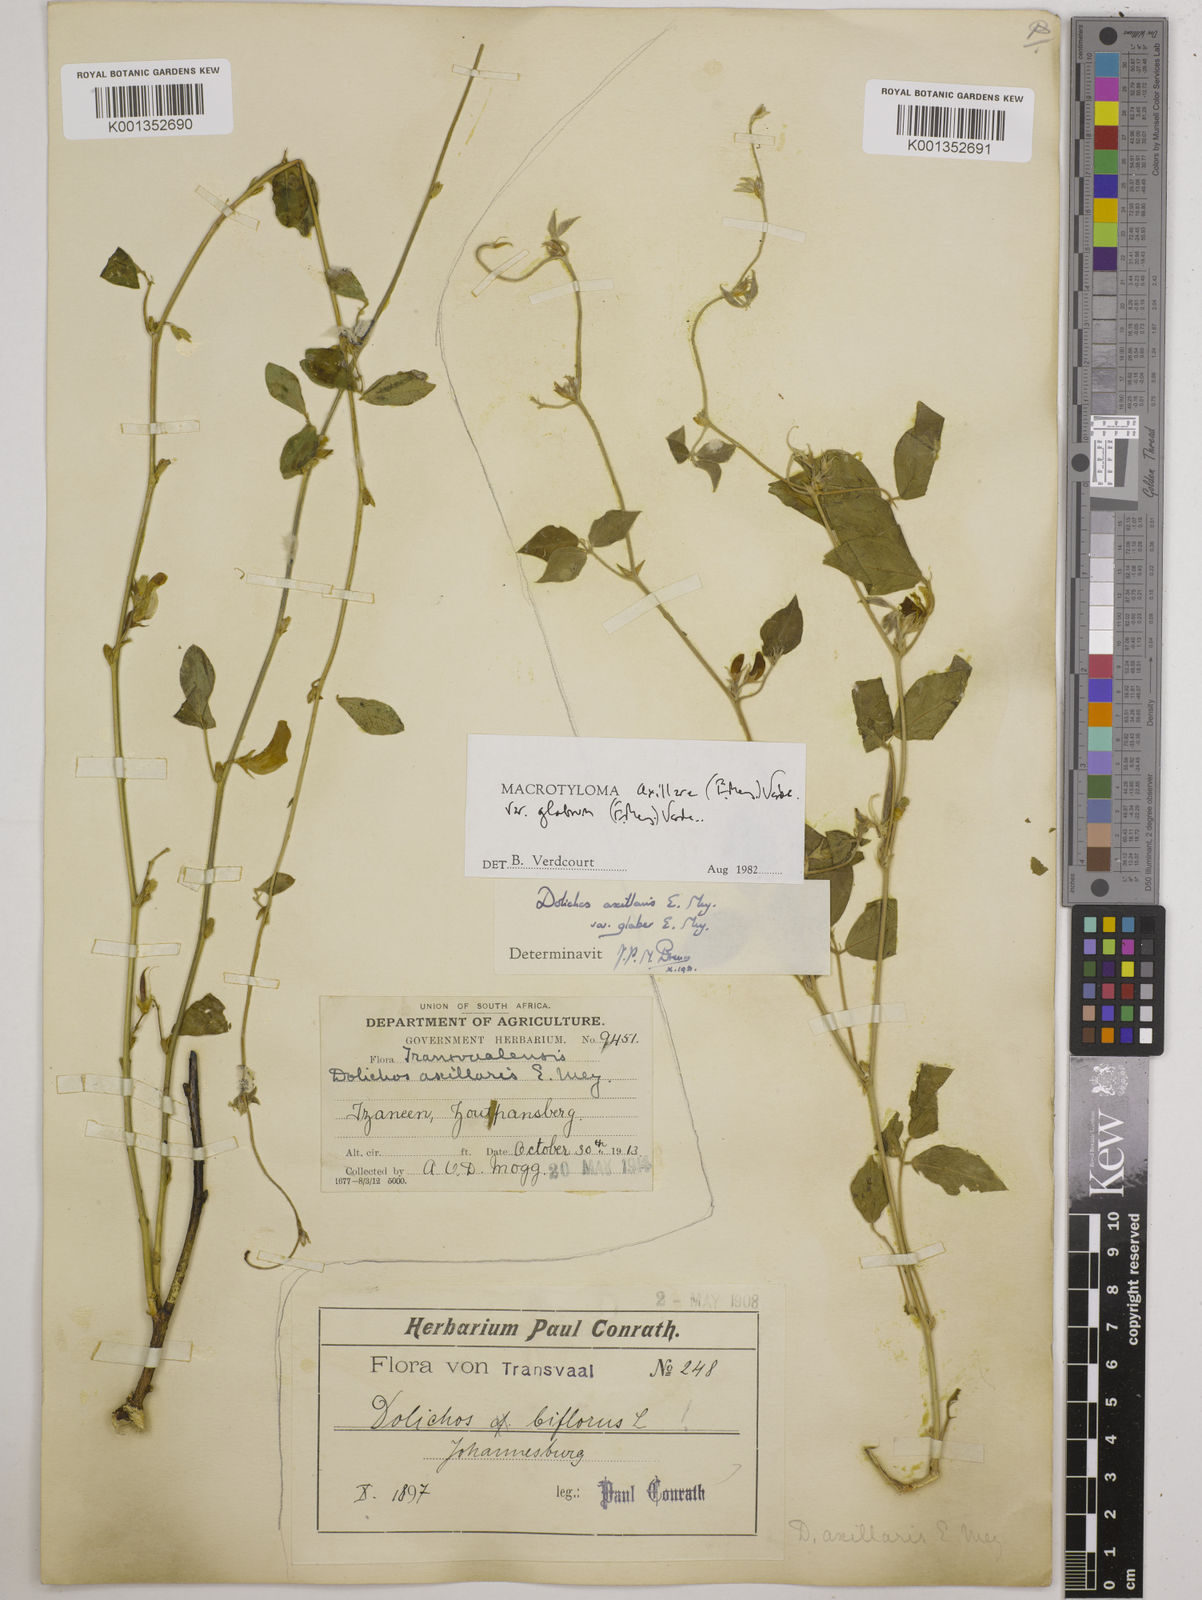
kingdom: Plantae
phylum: Tracheophyta
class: Magnoliopsida
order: Fabales
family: Fabaceae
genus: Macrotyloma
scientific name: Macrotyloma
